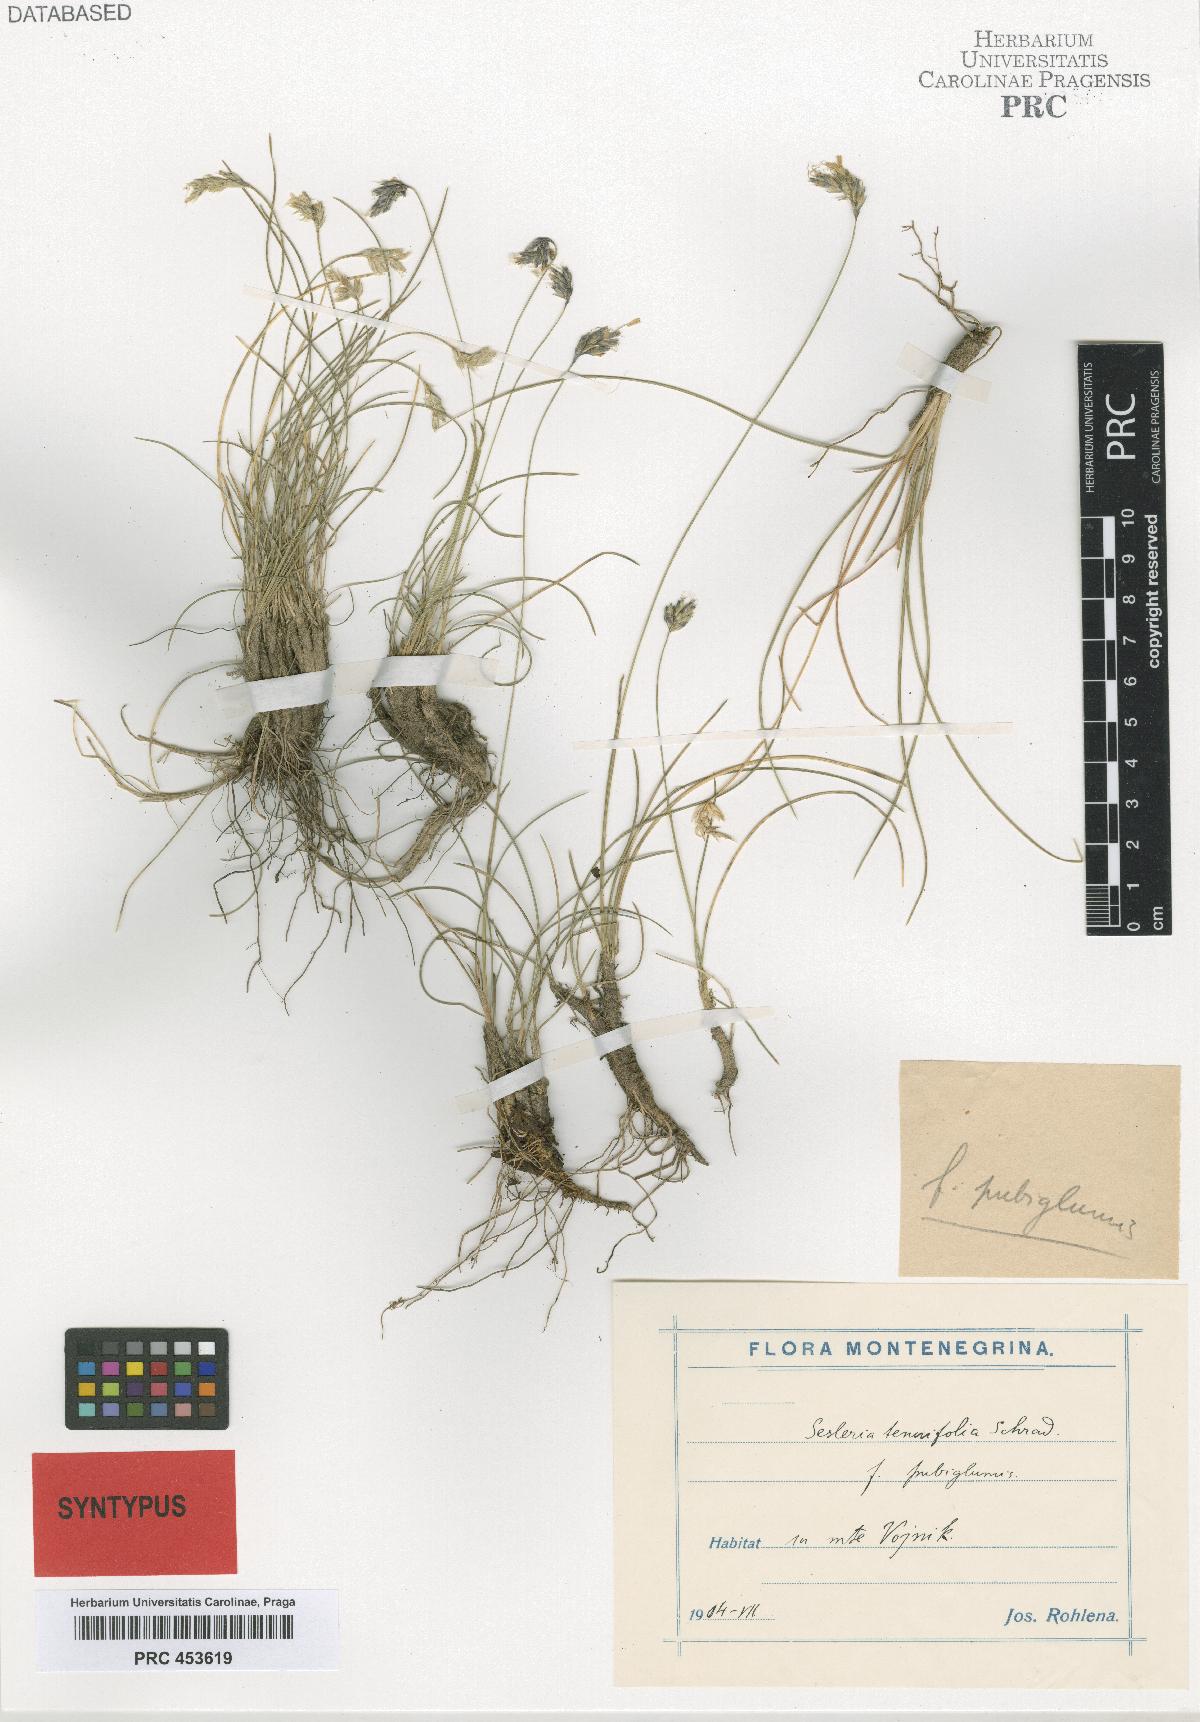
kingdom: Plantae
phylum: Tracheophyta
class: Liliopsida
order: Poales
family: Poaceae
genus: Sesleria
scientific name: Sesleria
